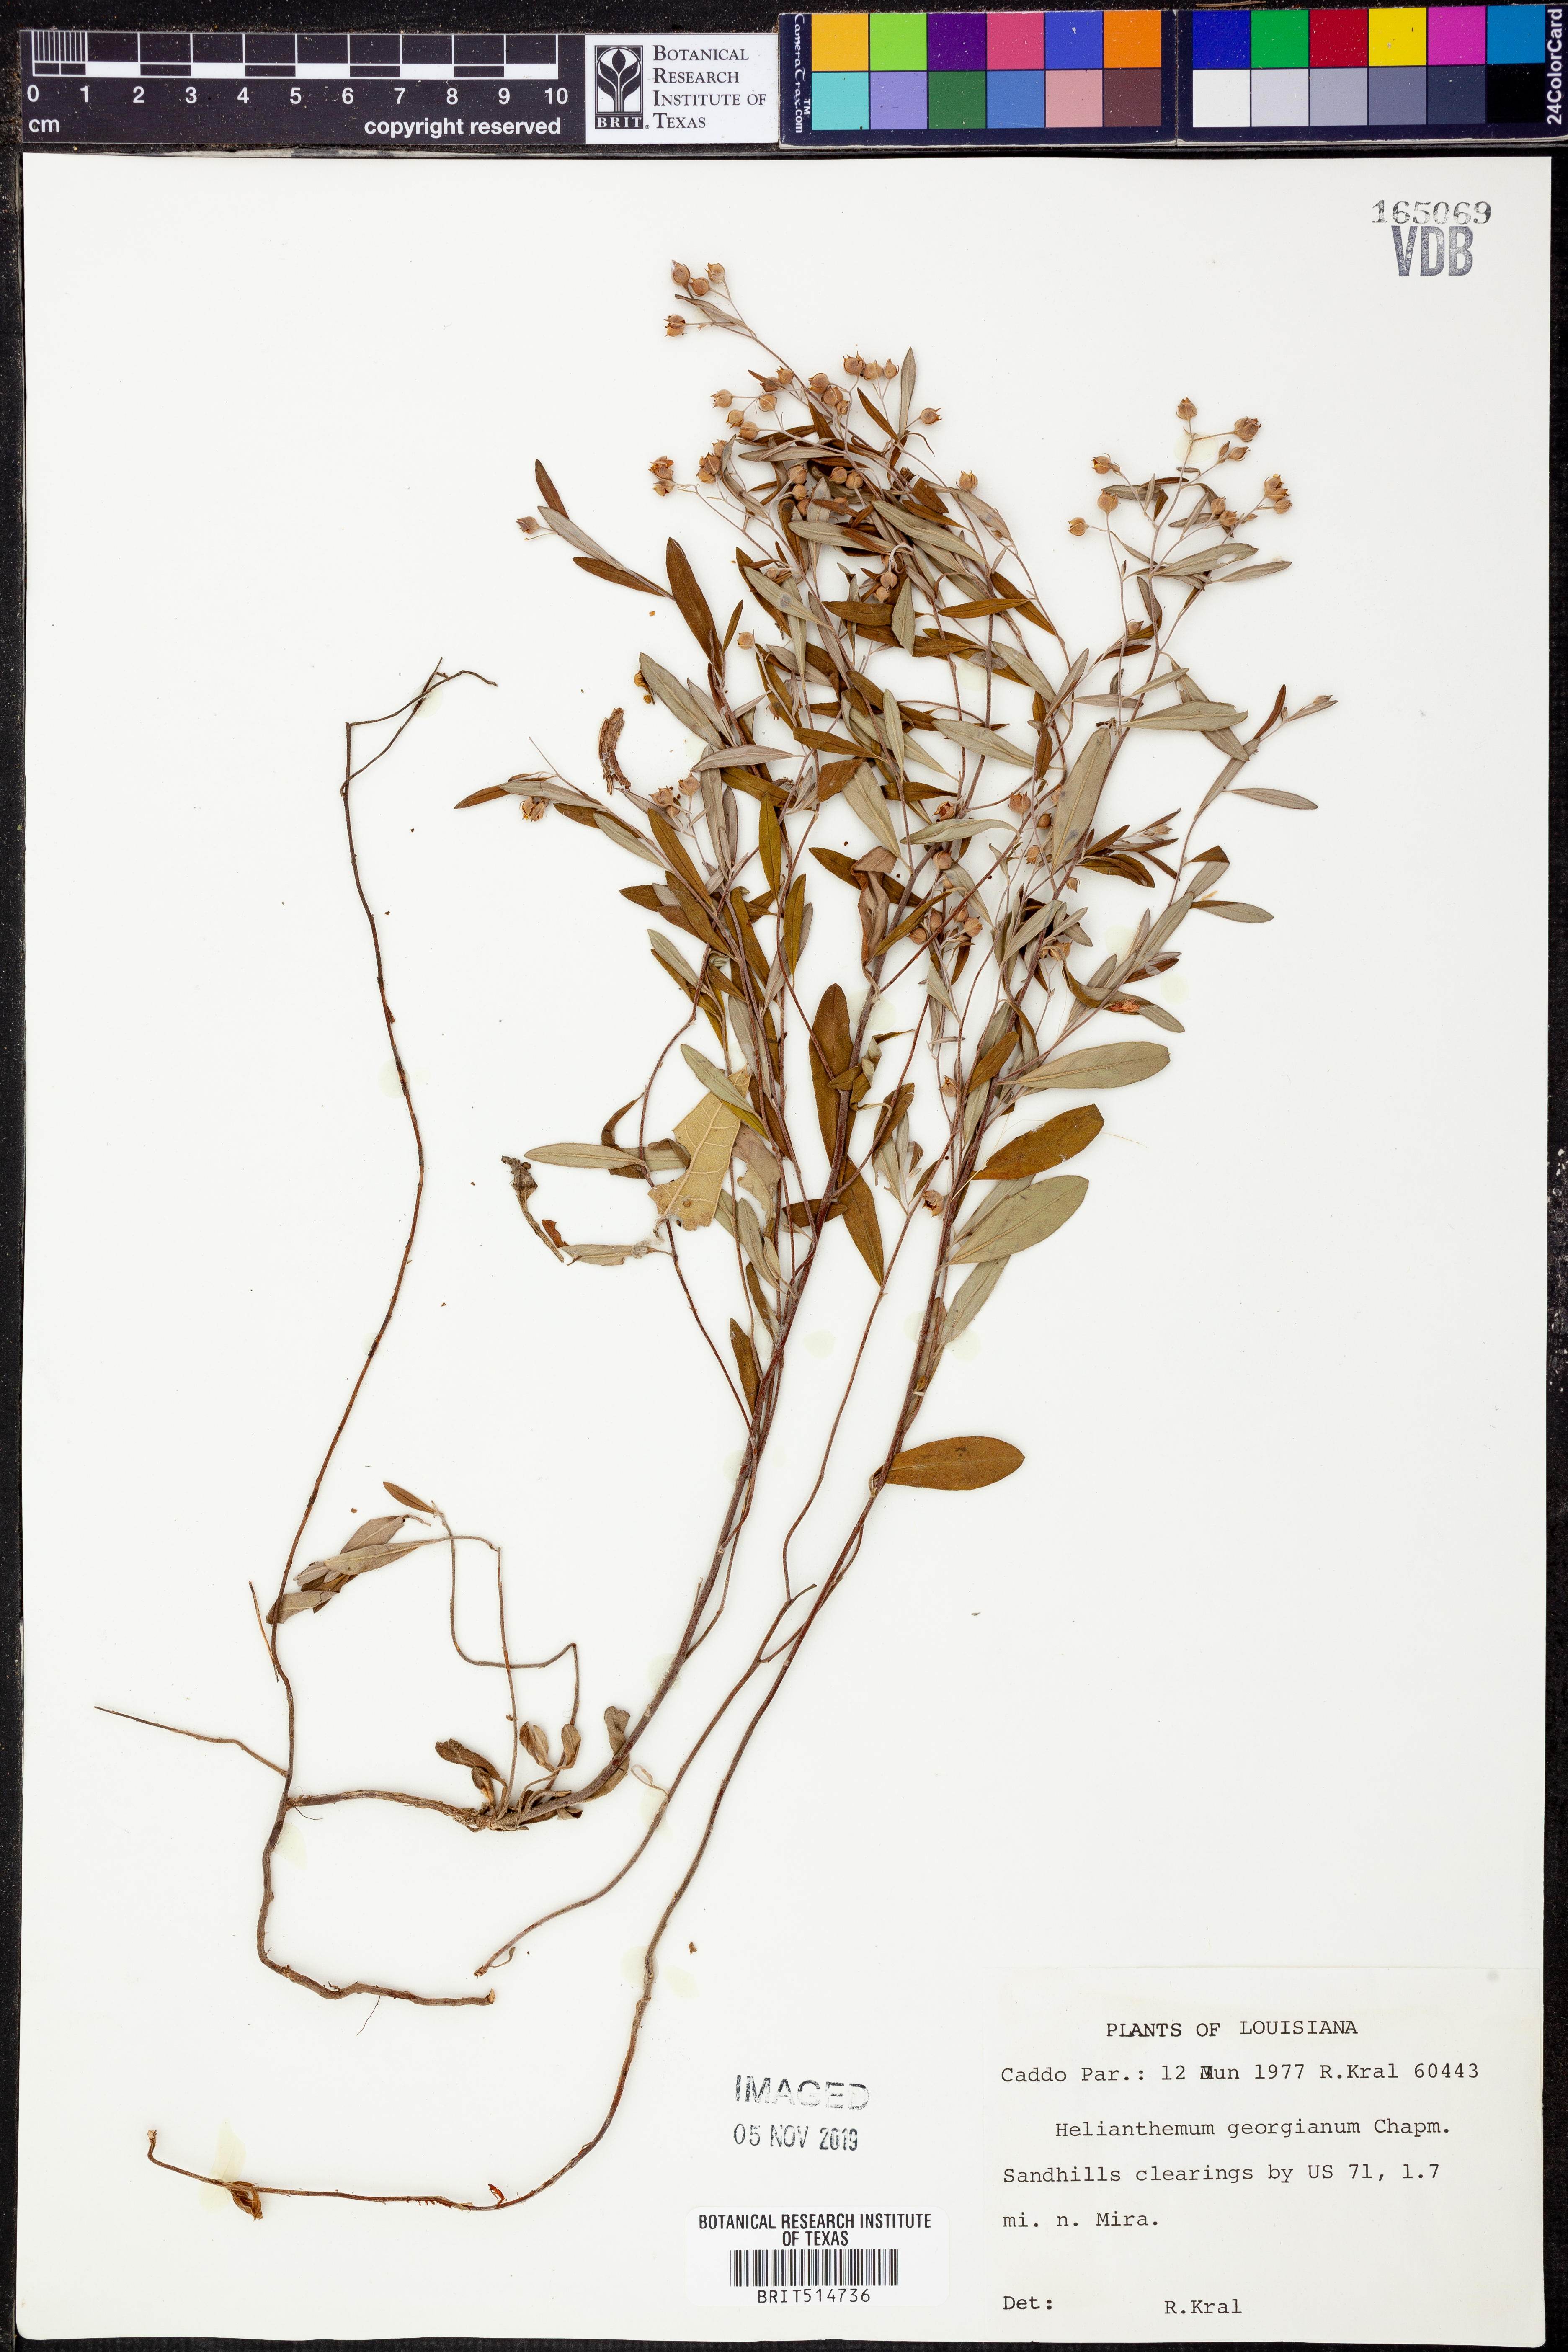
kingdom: Plantae
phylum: Tracheophyta
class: Magnoliopsida
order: Malvales
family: Cistaceae
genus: Crocanthemum
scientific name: Crocanthemum georgianum
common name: Georgia frostweed
